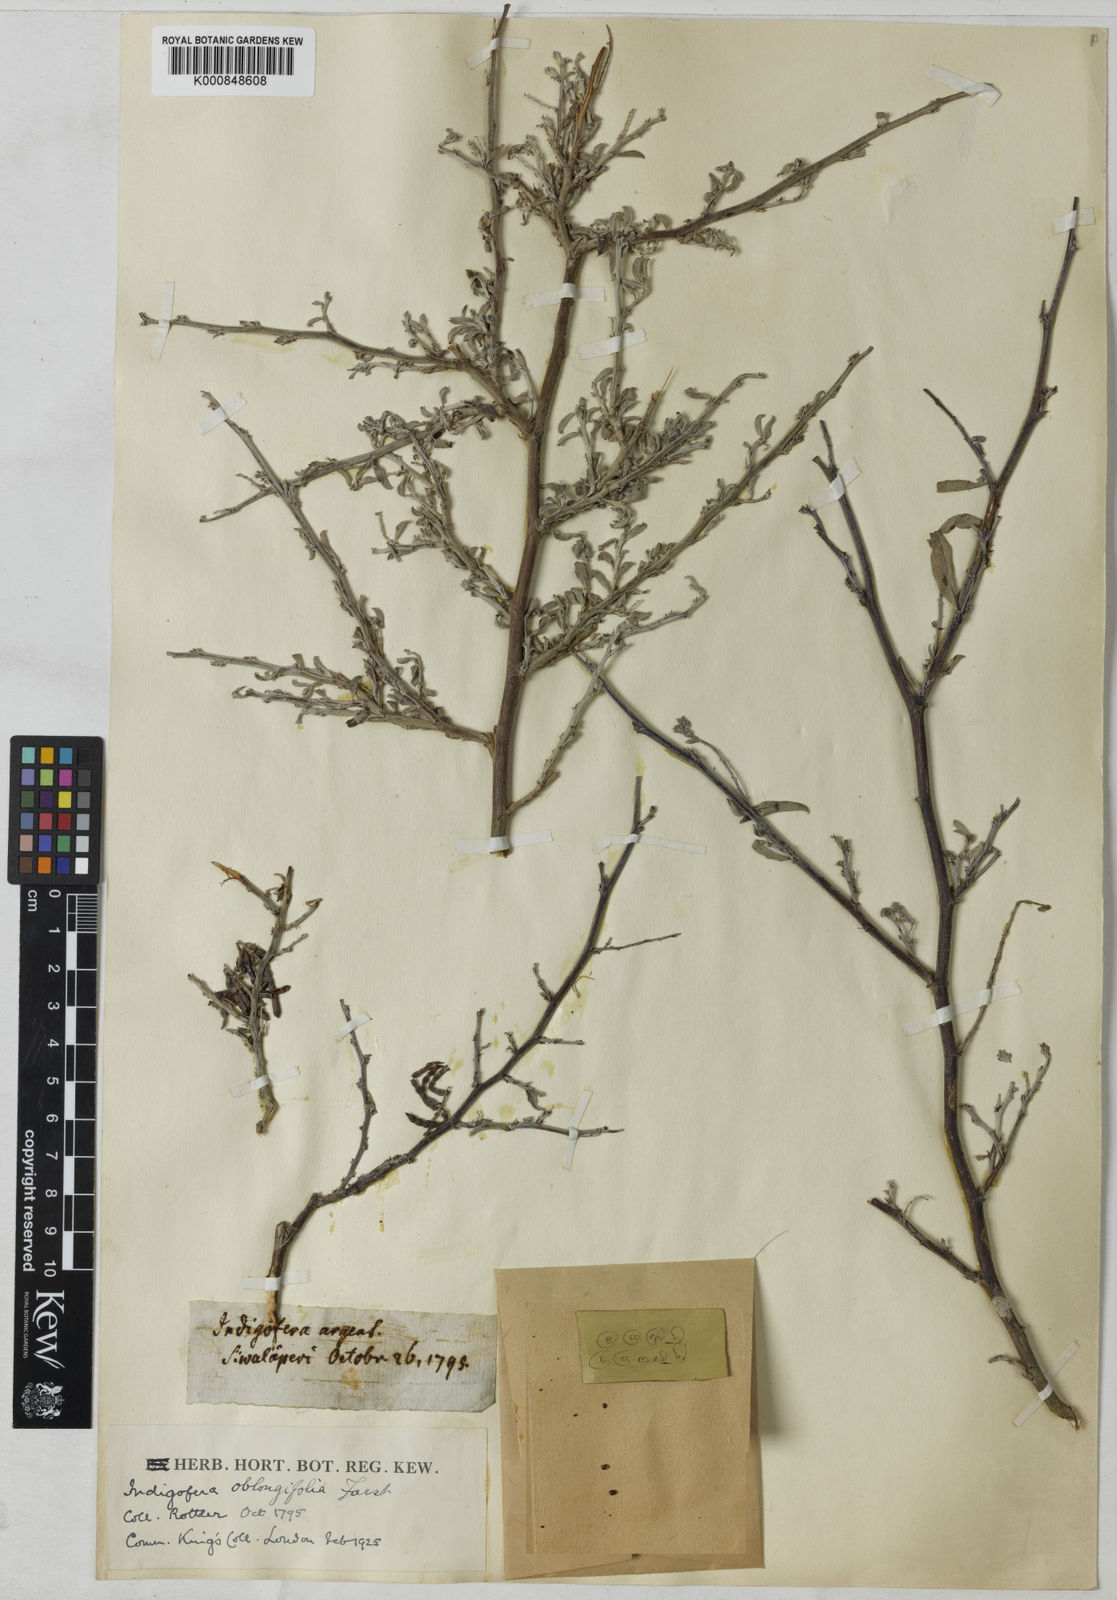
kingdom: Plantae
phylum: Tracheophyta
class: Magnoliopsida
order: Fabales
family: Fabaceae
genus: Indigofera
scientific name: Indigofera oblongifolia
